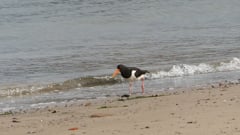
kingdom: Animalia
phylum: Chordata
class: Aves
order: Charadriiformes
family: Haematopodidae
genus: Haematopus
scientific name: Haematopus ostralegus
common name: Eurasian oystercatcher
